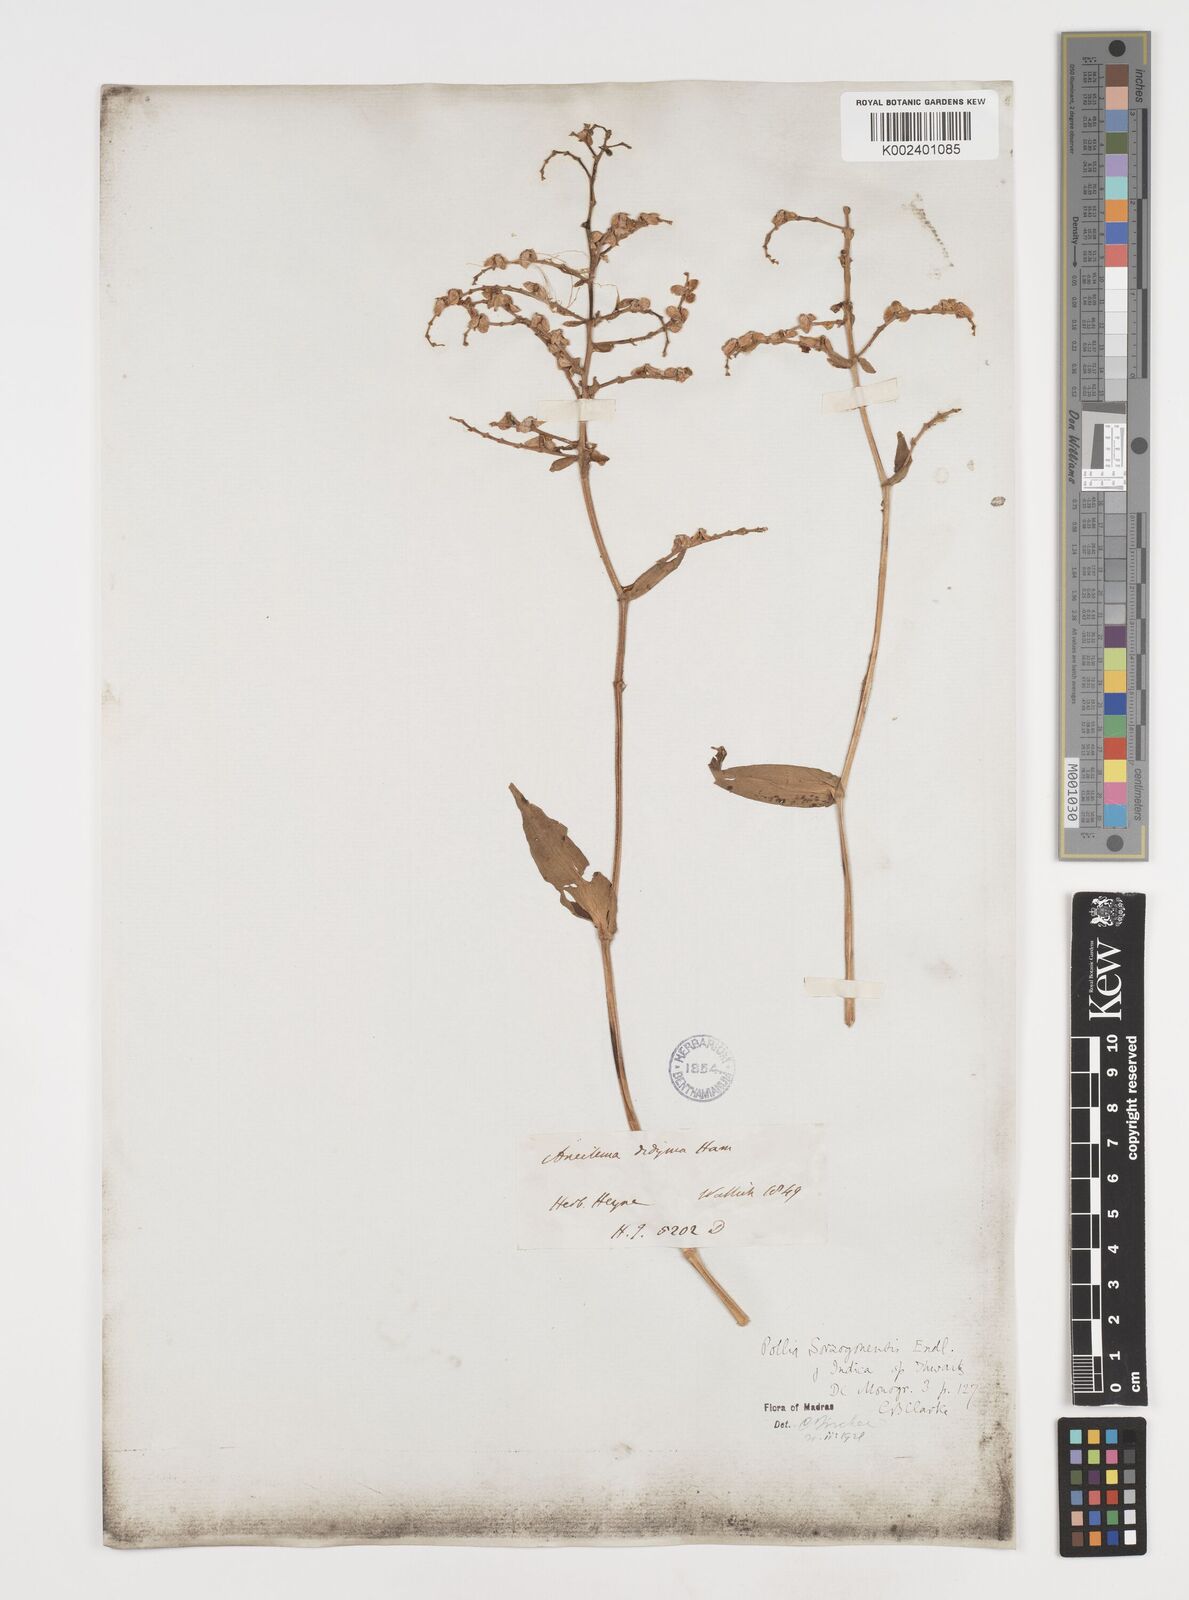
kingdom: Plantae
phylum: Tracheophyta
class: Liliopsida
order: Commelinales
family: Commelinaceae
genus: Pollia
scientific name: Pollia secundiflora
